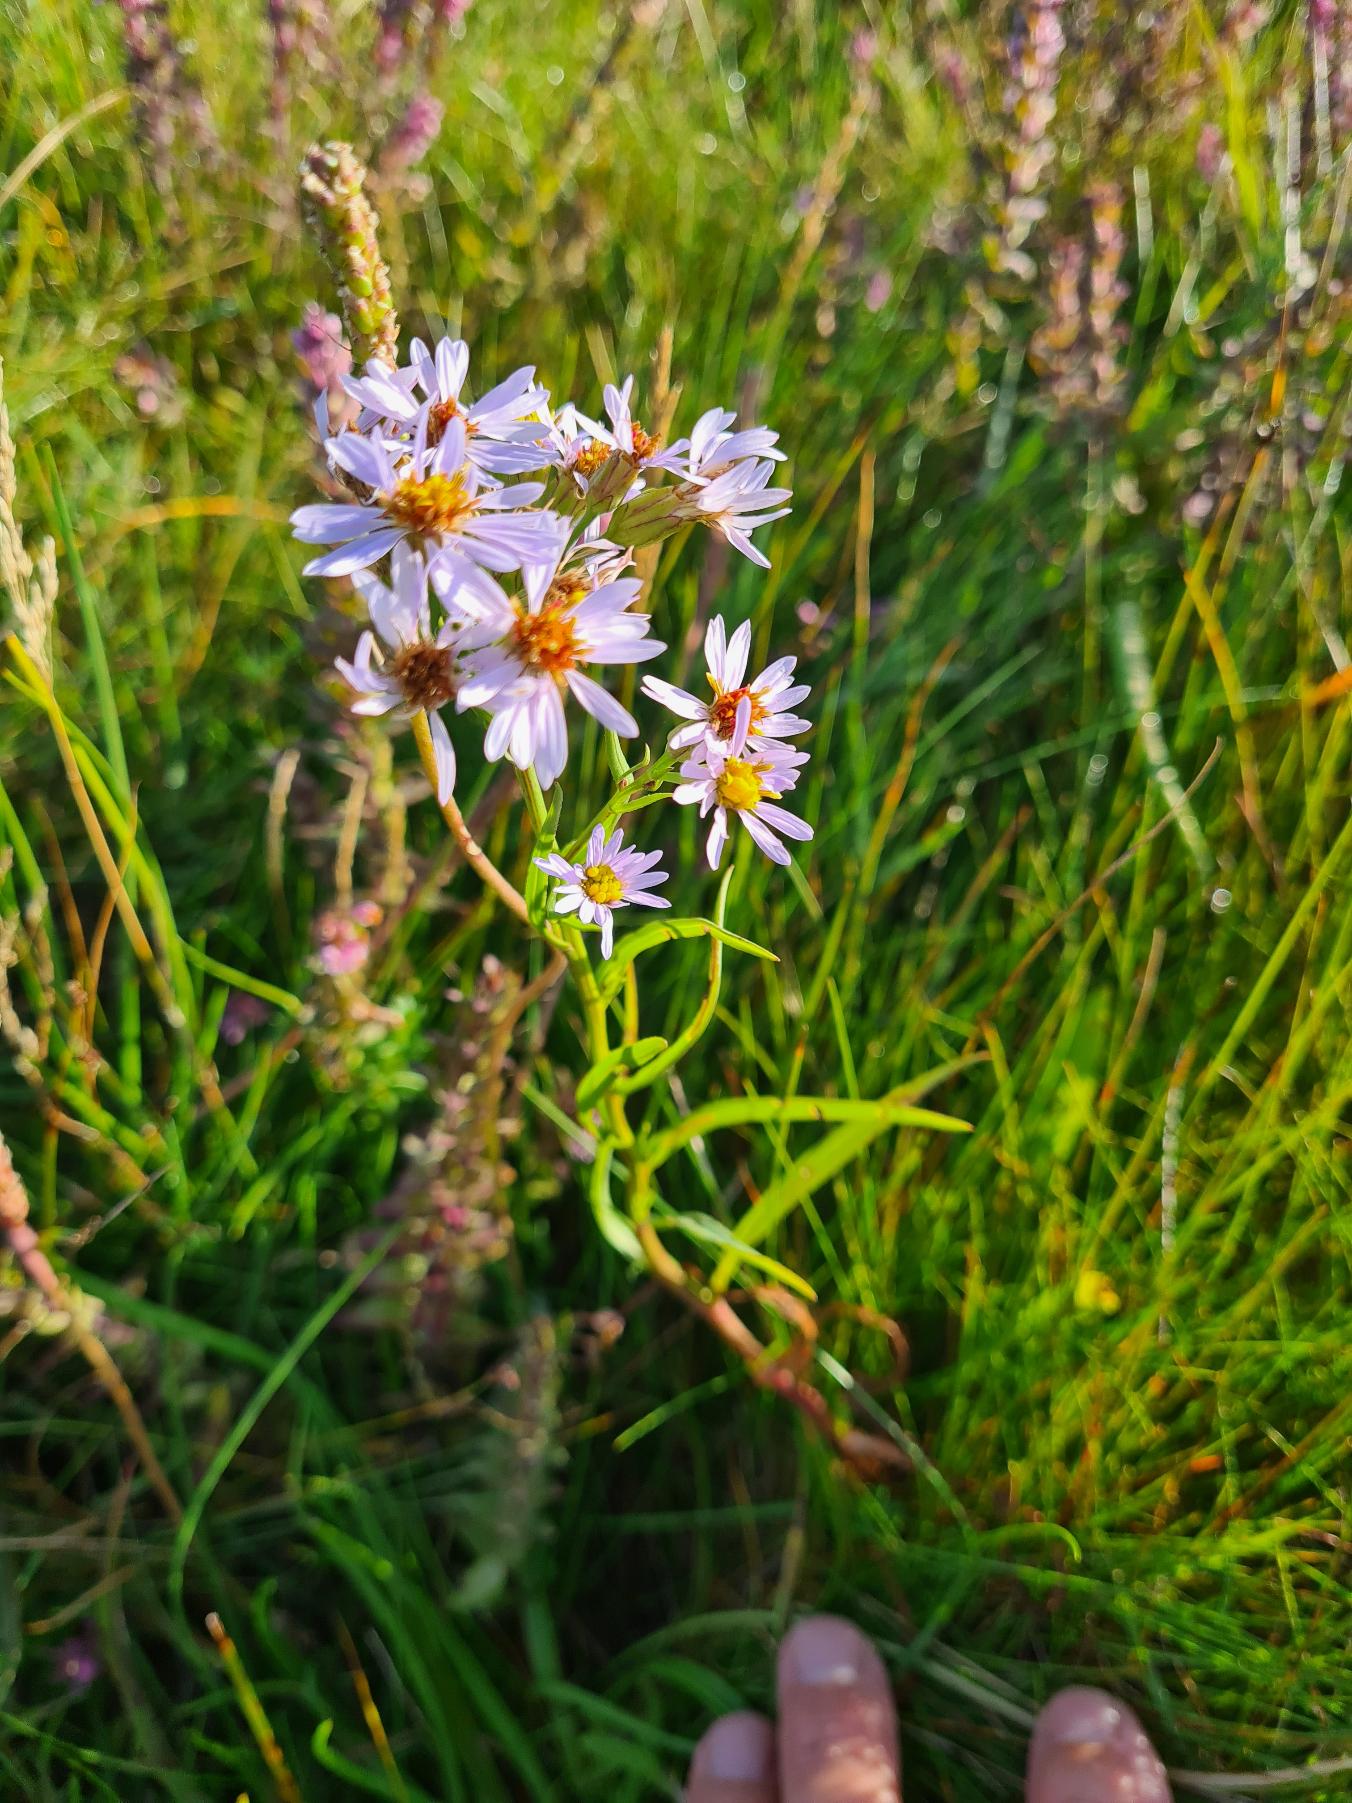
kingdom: Plantae
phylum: Tracheophyta
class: Magnoliopsida
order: Asterales
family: Asteraceae
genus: Tripolium
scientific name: Tripolium pannonicum
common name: Strandasters
